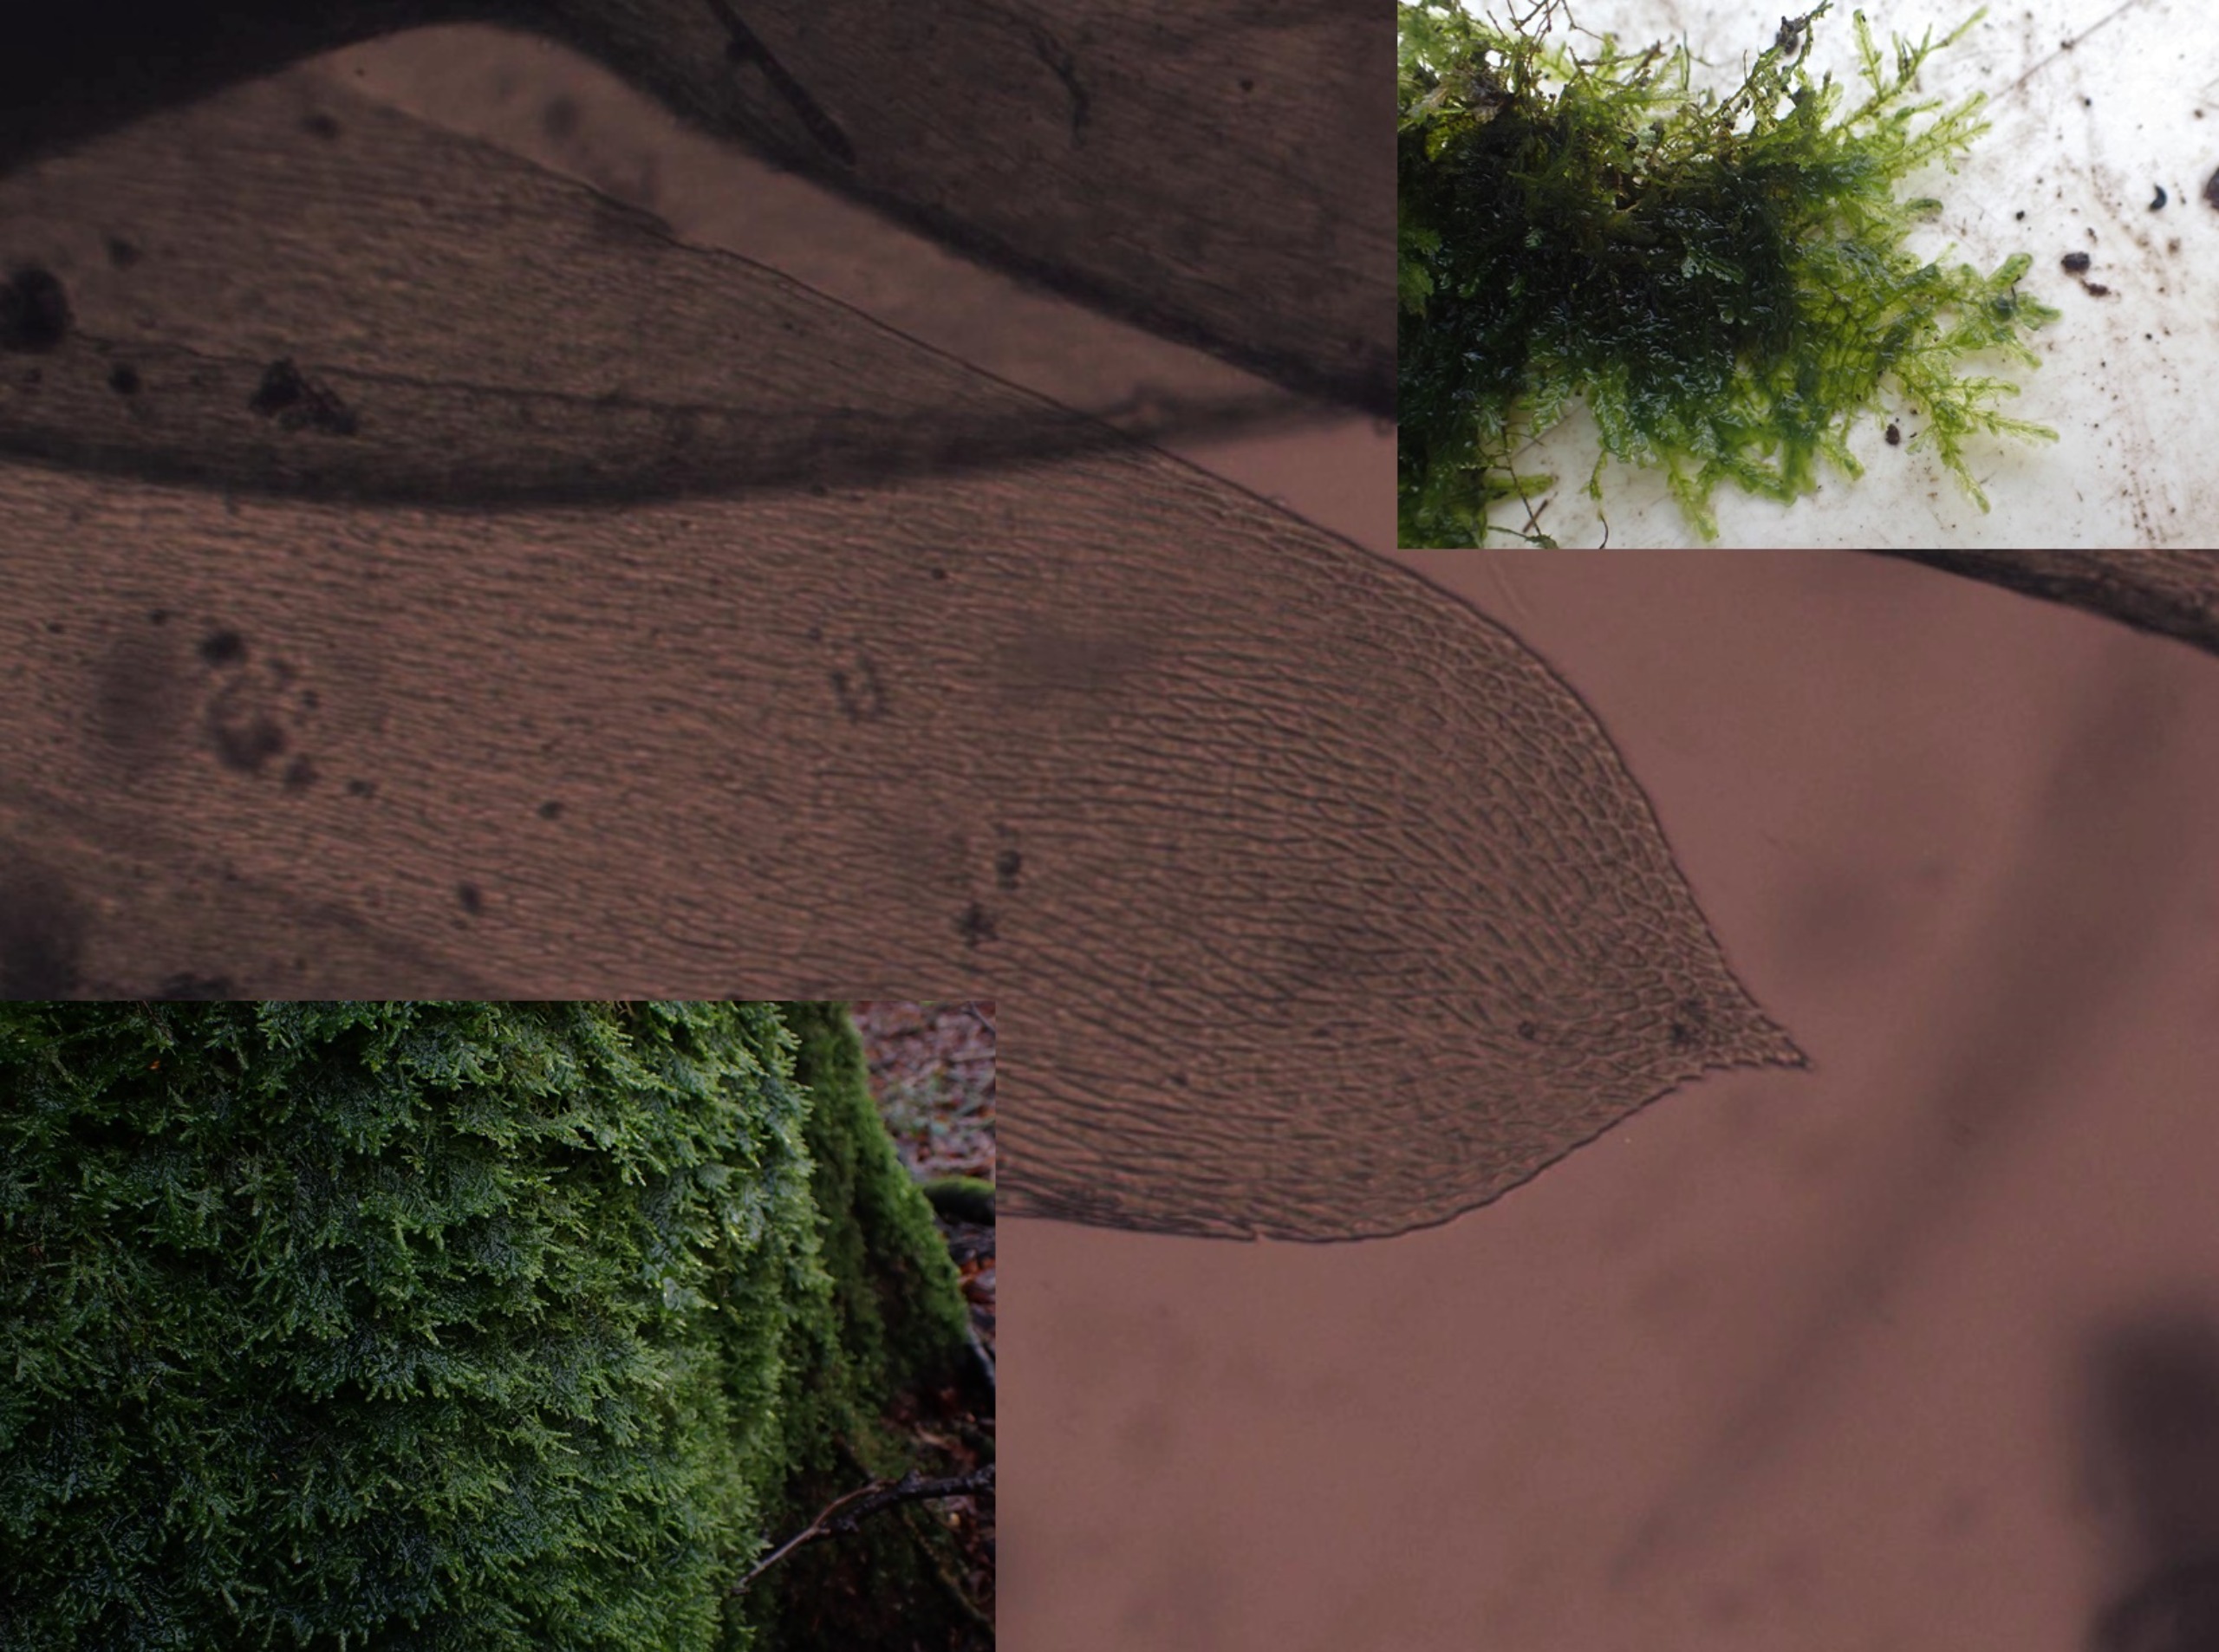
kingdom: Plantae
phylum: Bryophyta
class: Bryopsida
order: Hypnales
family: Neckeraceae
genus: Alleniella
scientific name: Alleniella complanata
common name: Almindelig fladmos
